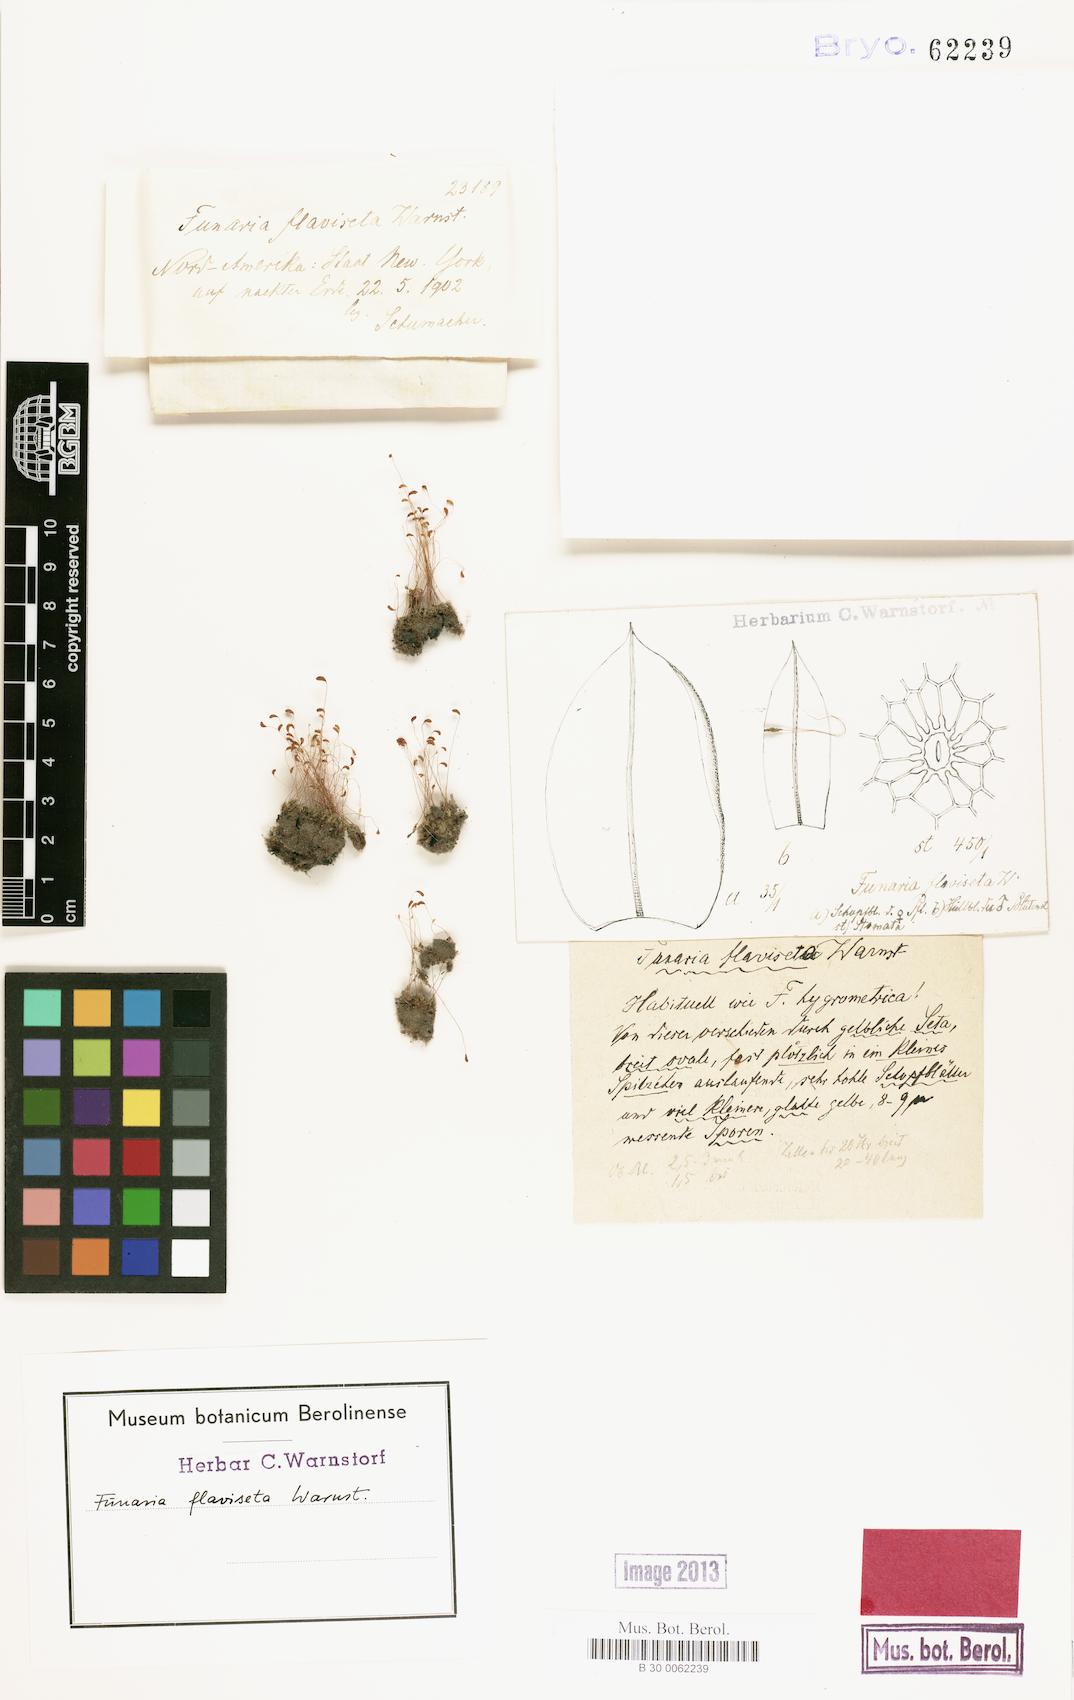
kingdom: Plantae
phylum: Bryophyta
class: Bryopsida
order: Funariales
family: Funariaceae
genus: Funaria
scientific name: Funaria hygrometrica
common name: Common cord moss
